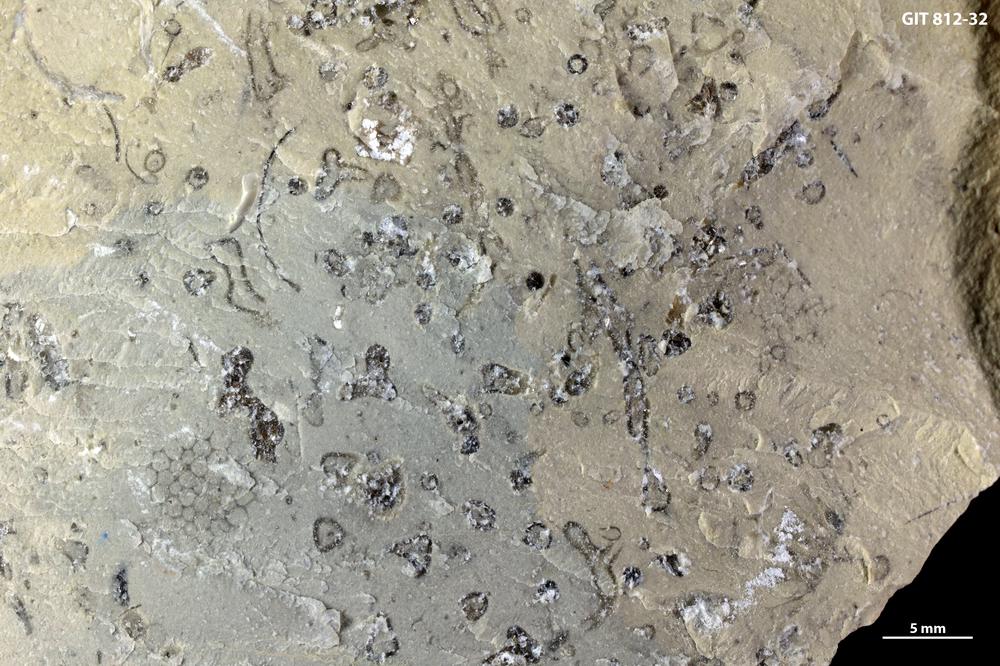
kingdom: Plantae
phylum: Chlorophyta
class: Ulvophyceae
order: Dasycladales
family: Dasycladaceae
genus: Vermiporella
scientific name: Vermiporella
